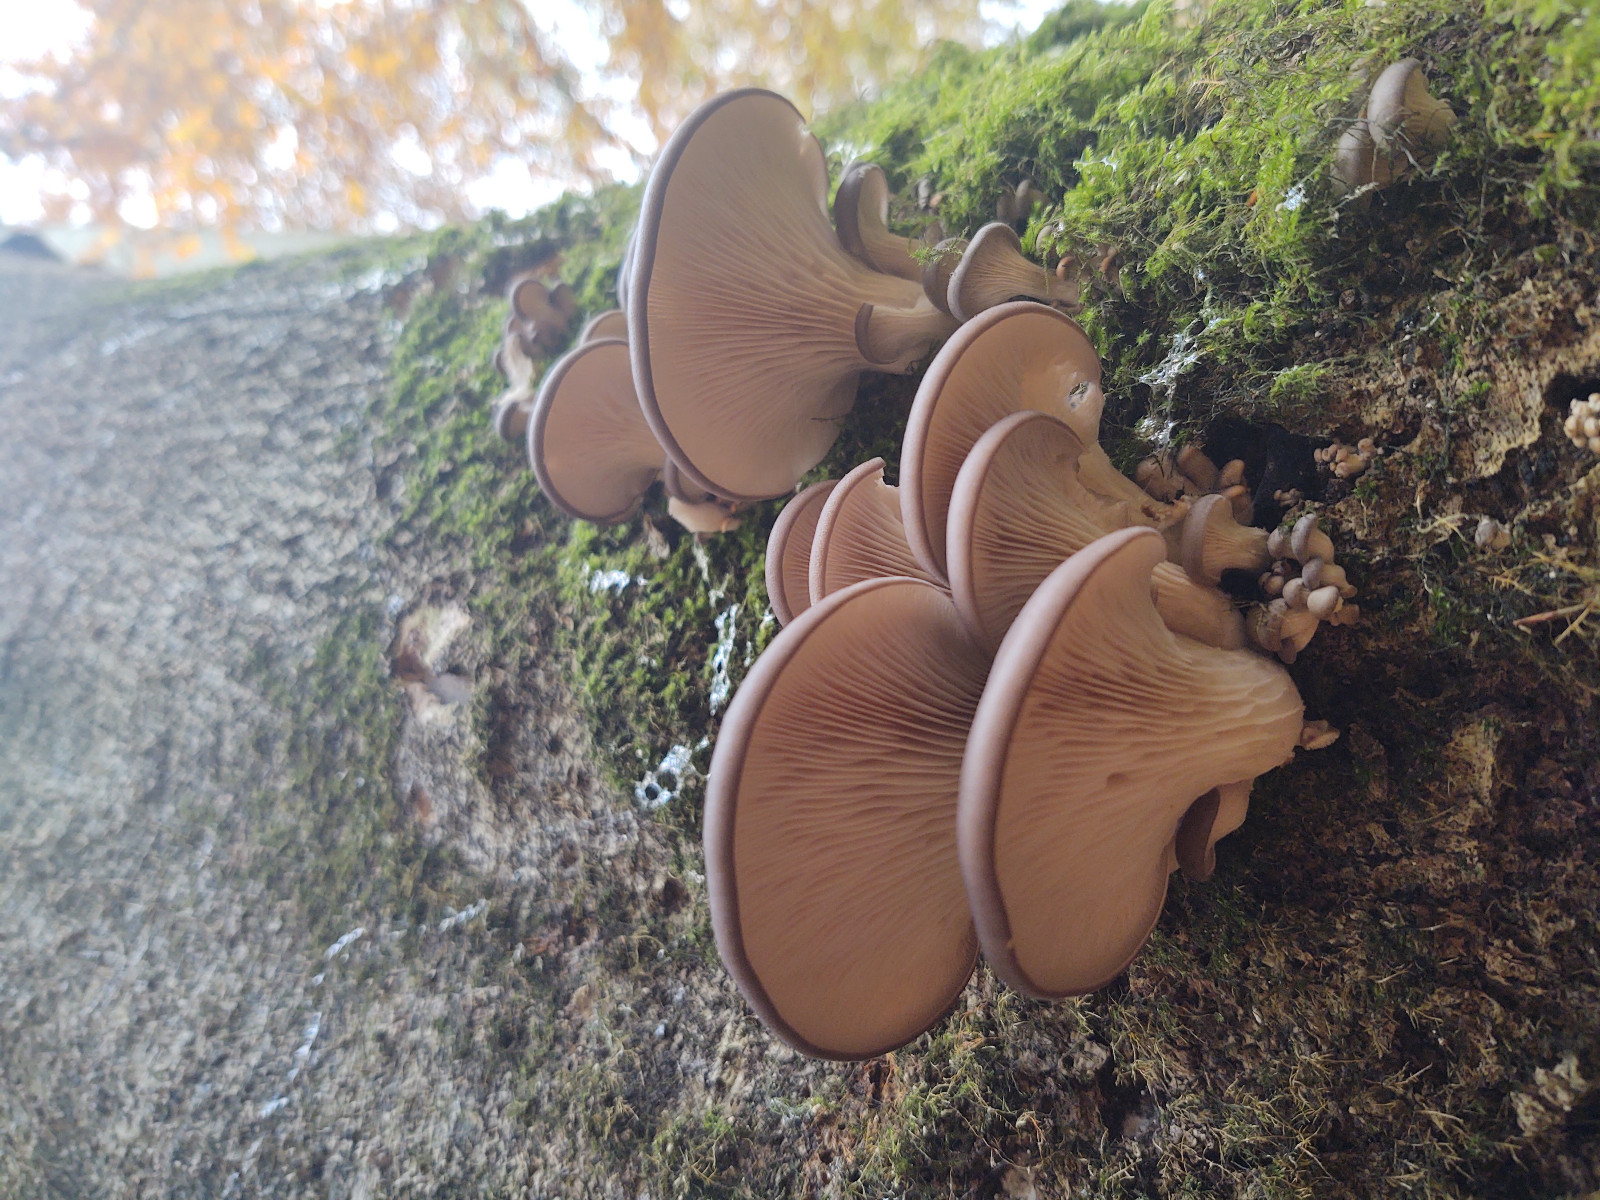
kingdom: Fungi
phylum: Basidiomycota
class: Agaricomycetes
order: Agaricales
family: Pleurotaceae
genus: Pleurotus
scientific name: Pleurotus ostreatus
